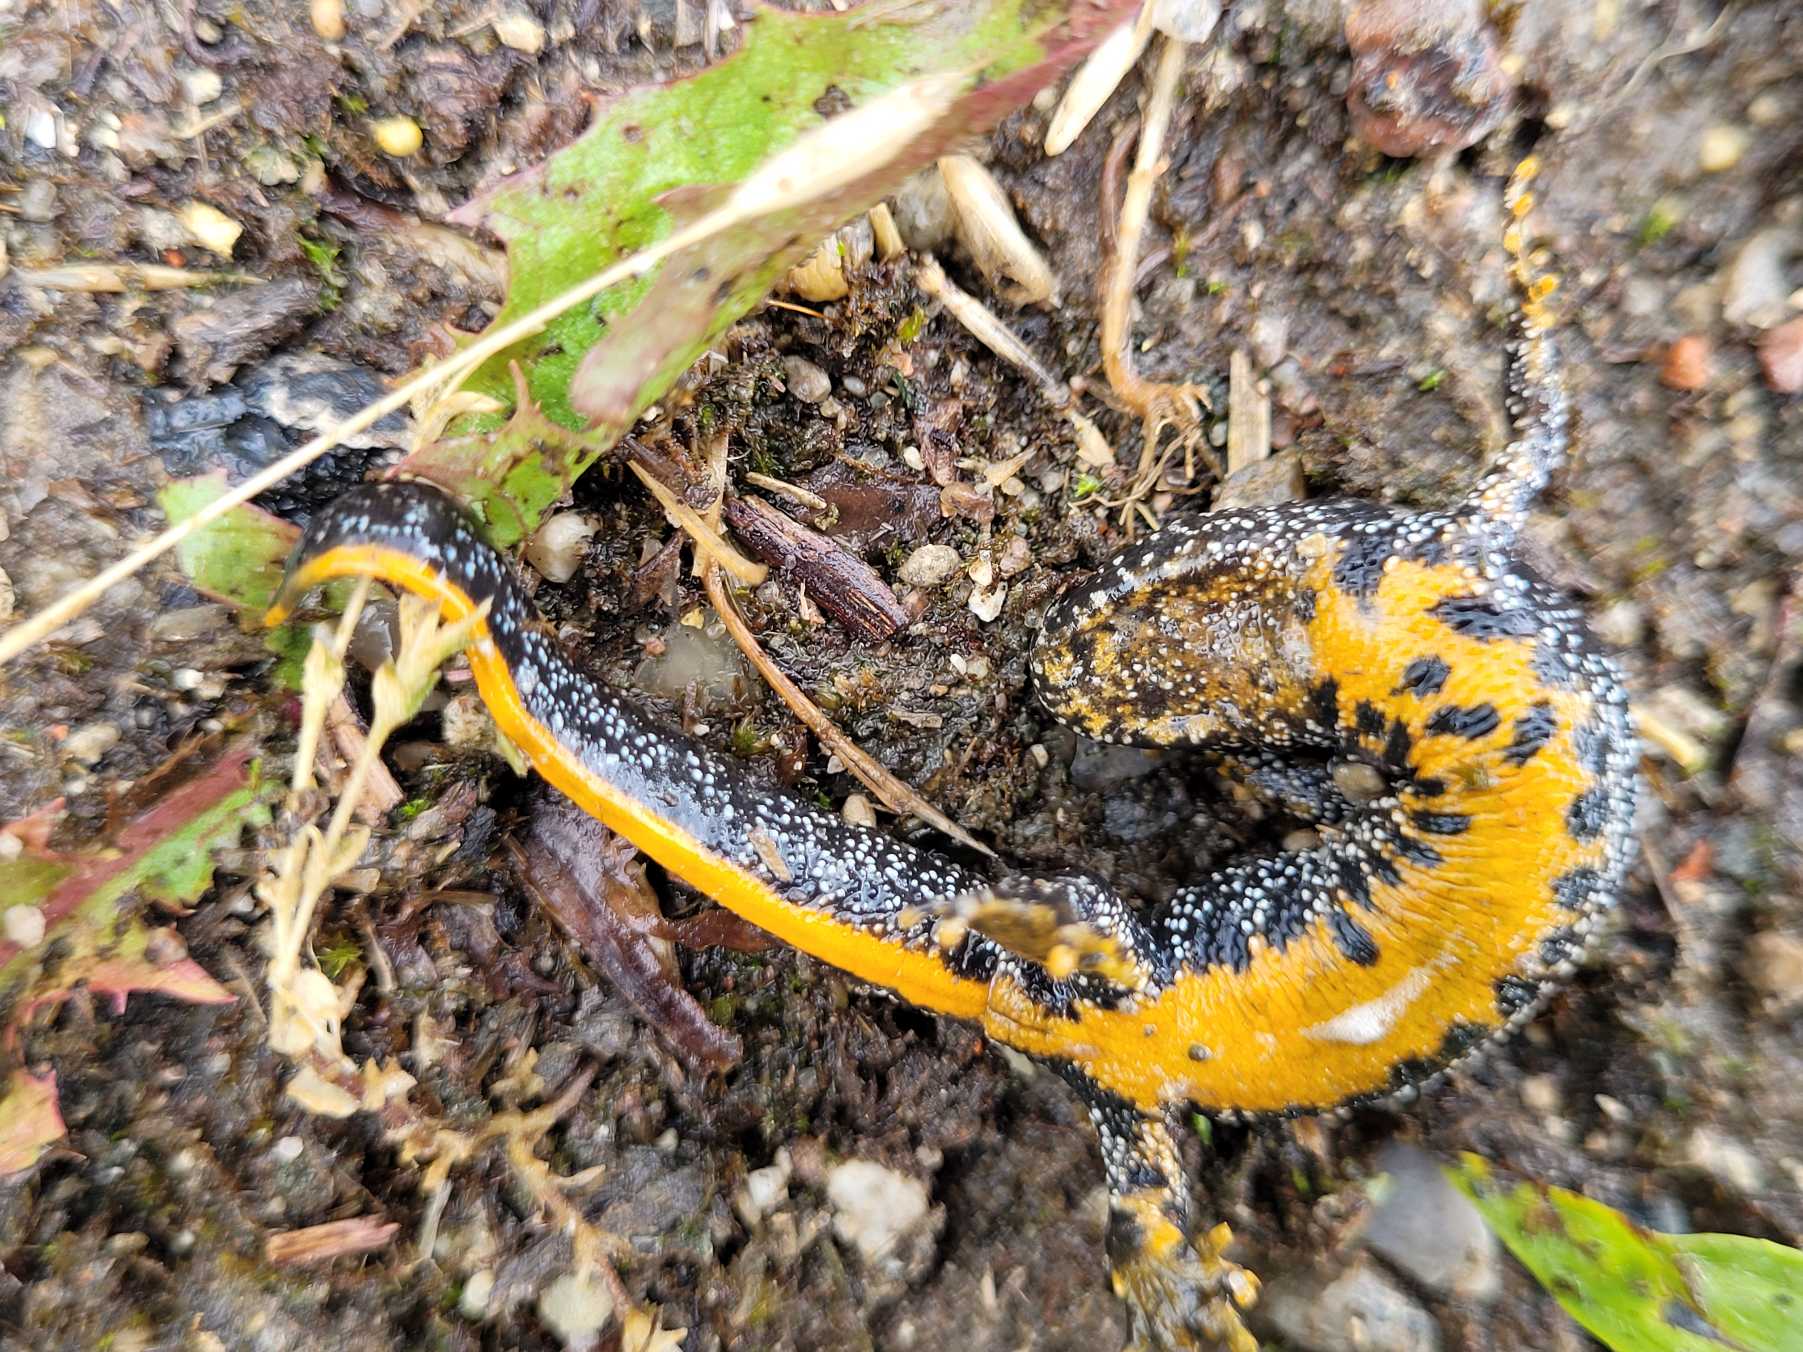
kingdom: Animalia
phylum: Chordata
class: Amphibia
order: Caudata
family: Salamandridae
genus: Triturus
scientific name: Triturus cristatus
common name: Stor vandsalamander
